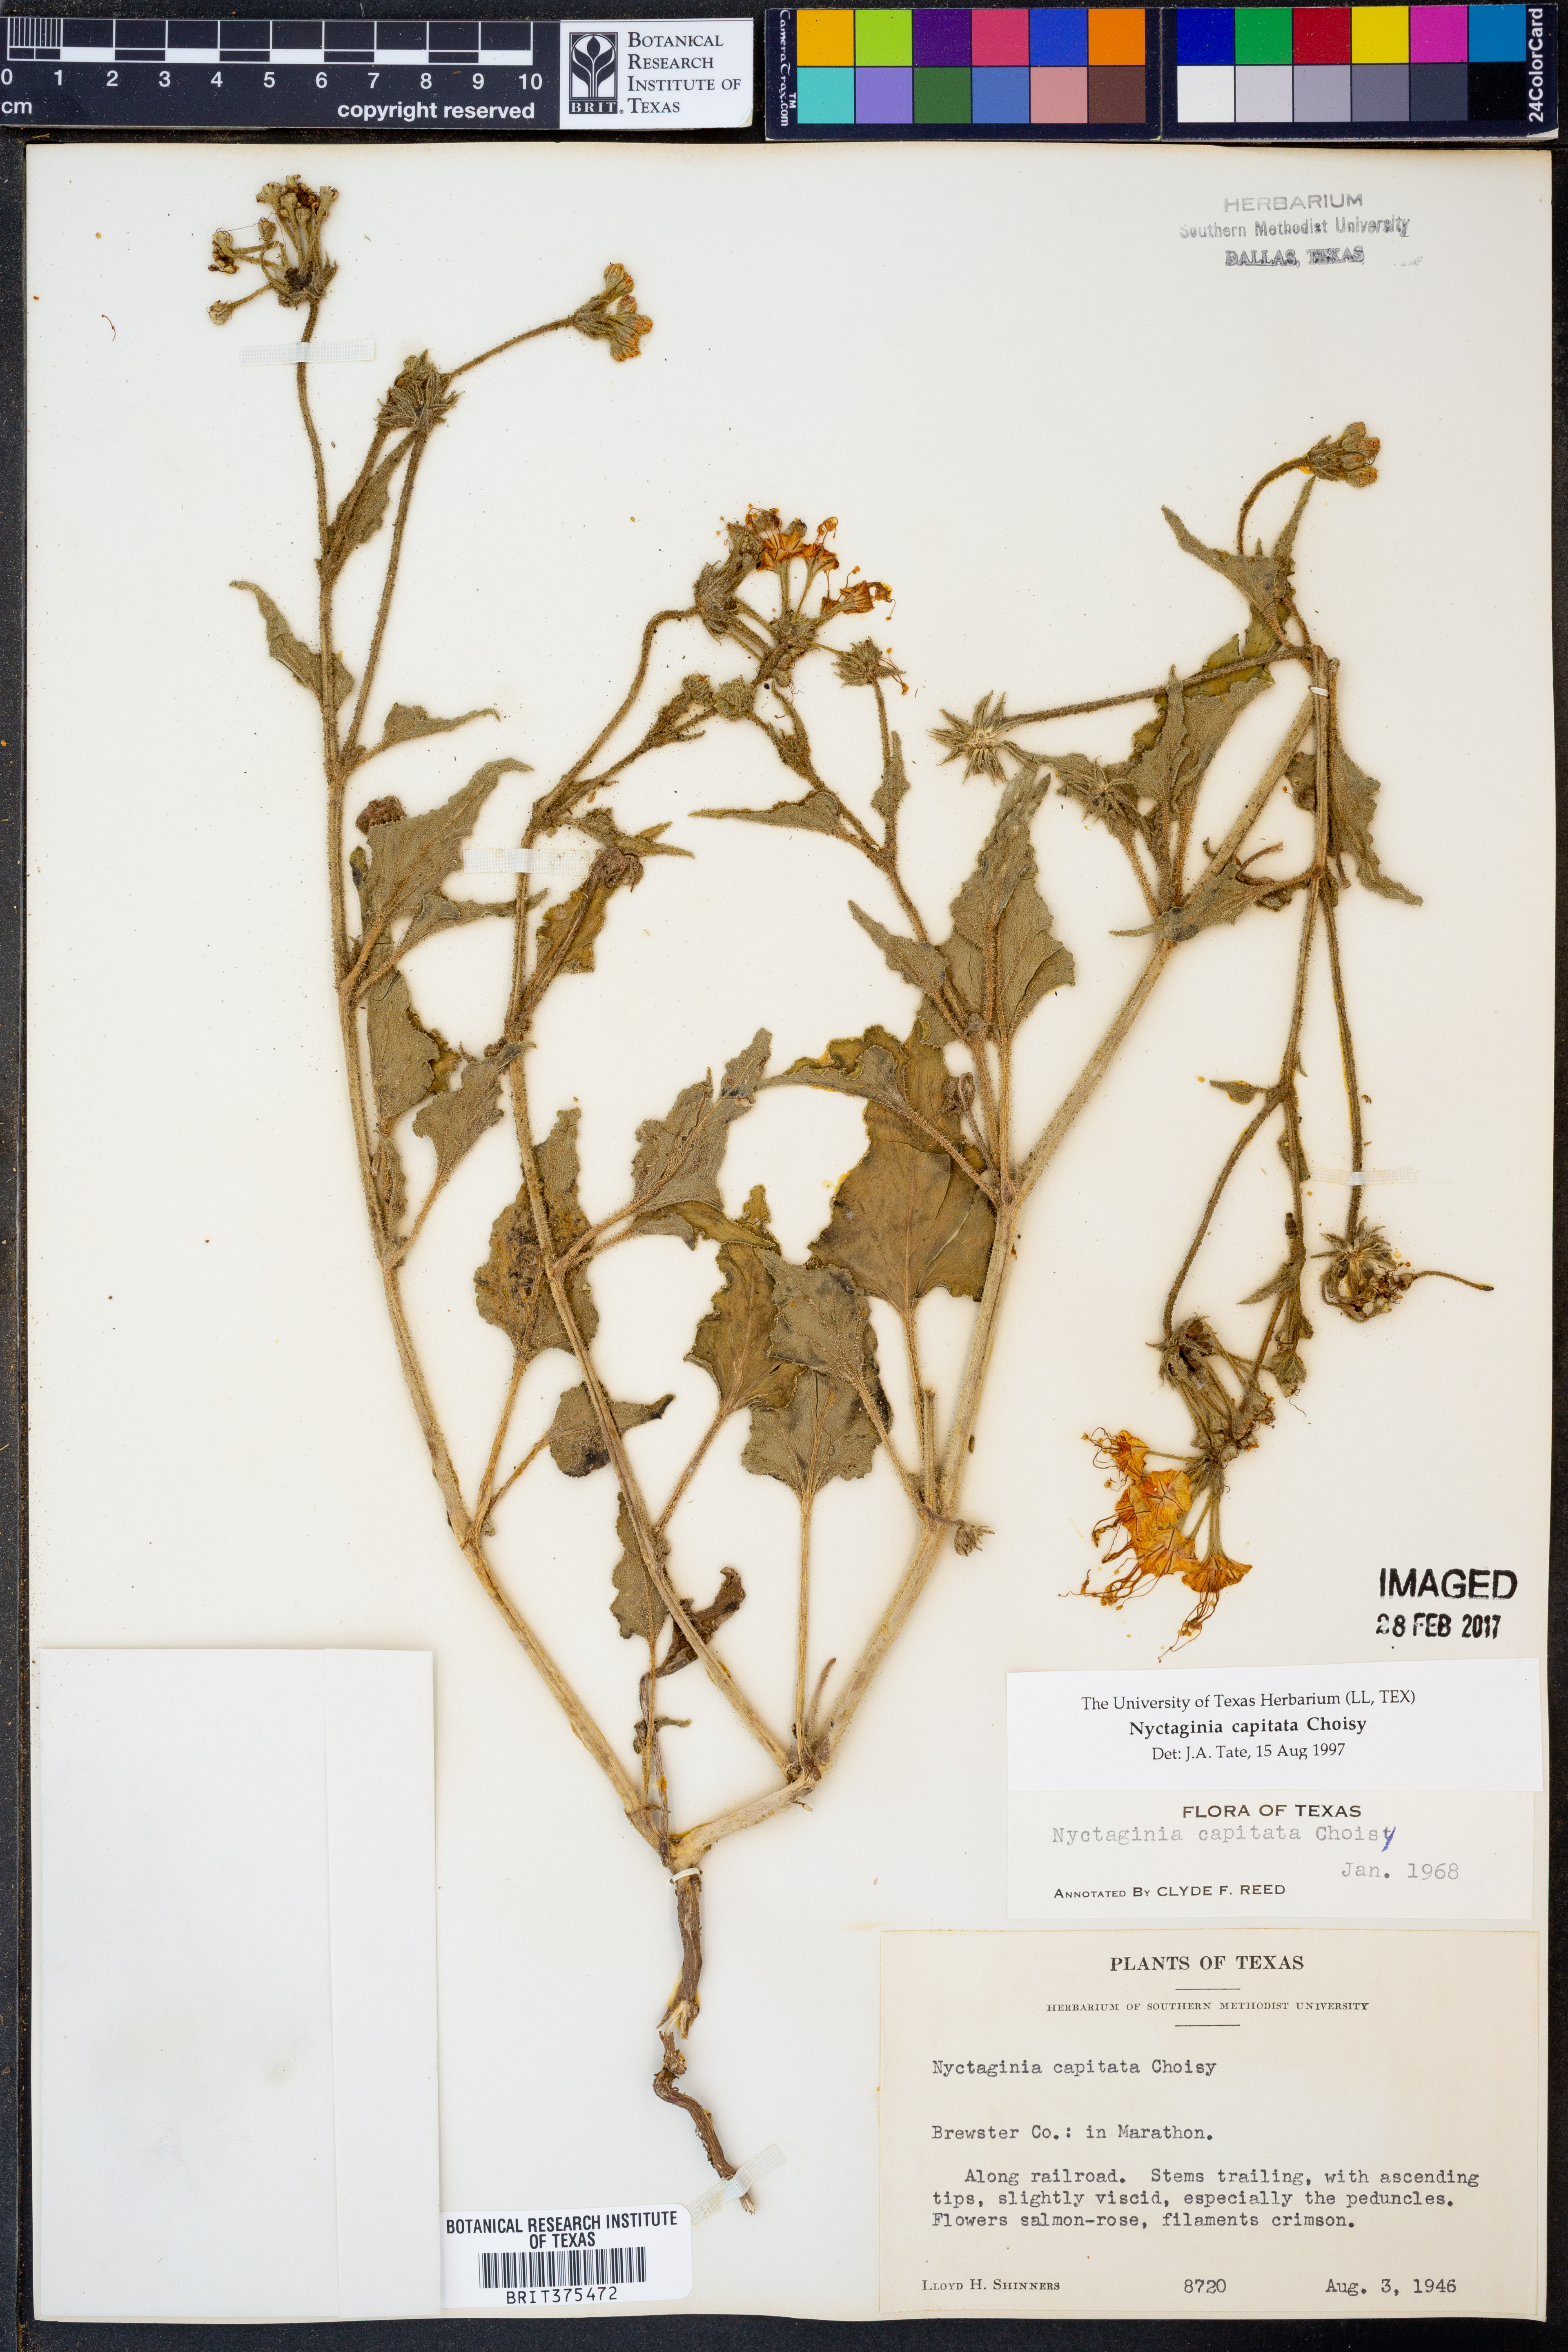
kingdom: Plantae
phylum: Tracheophyta
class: Magnoliopsida
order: Caryophyllales
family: Nyctaginaceae
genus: Nyctaginia
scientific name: Nyctaginia capitata
